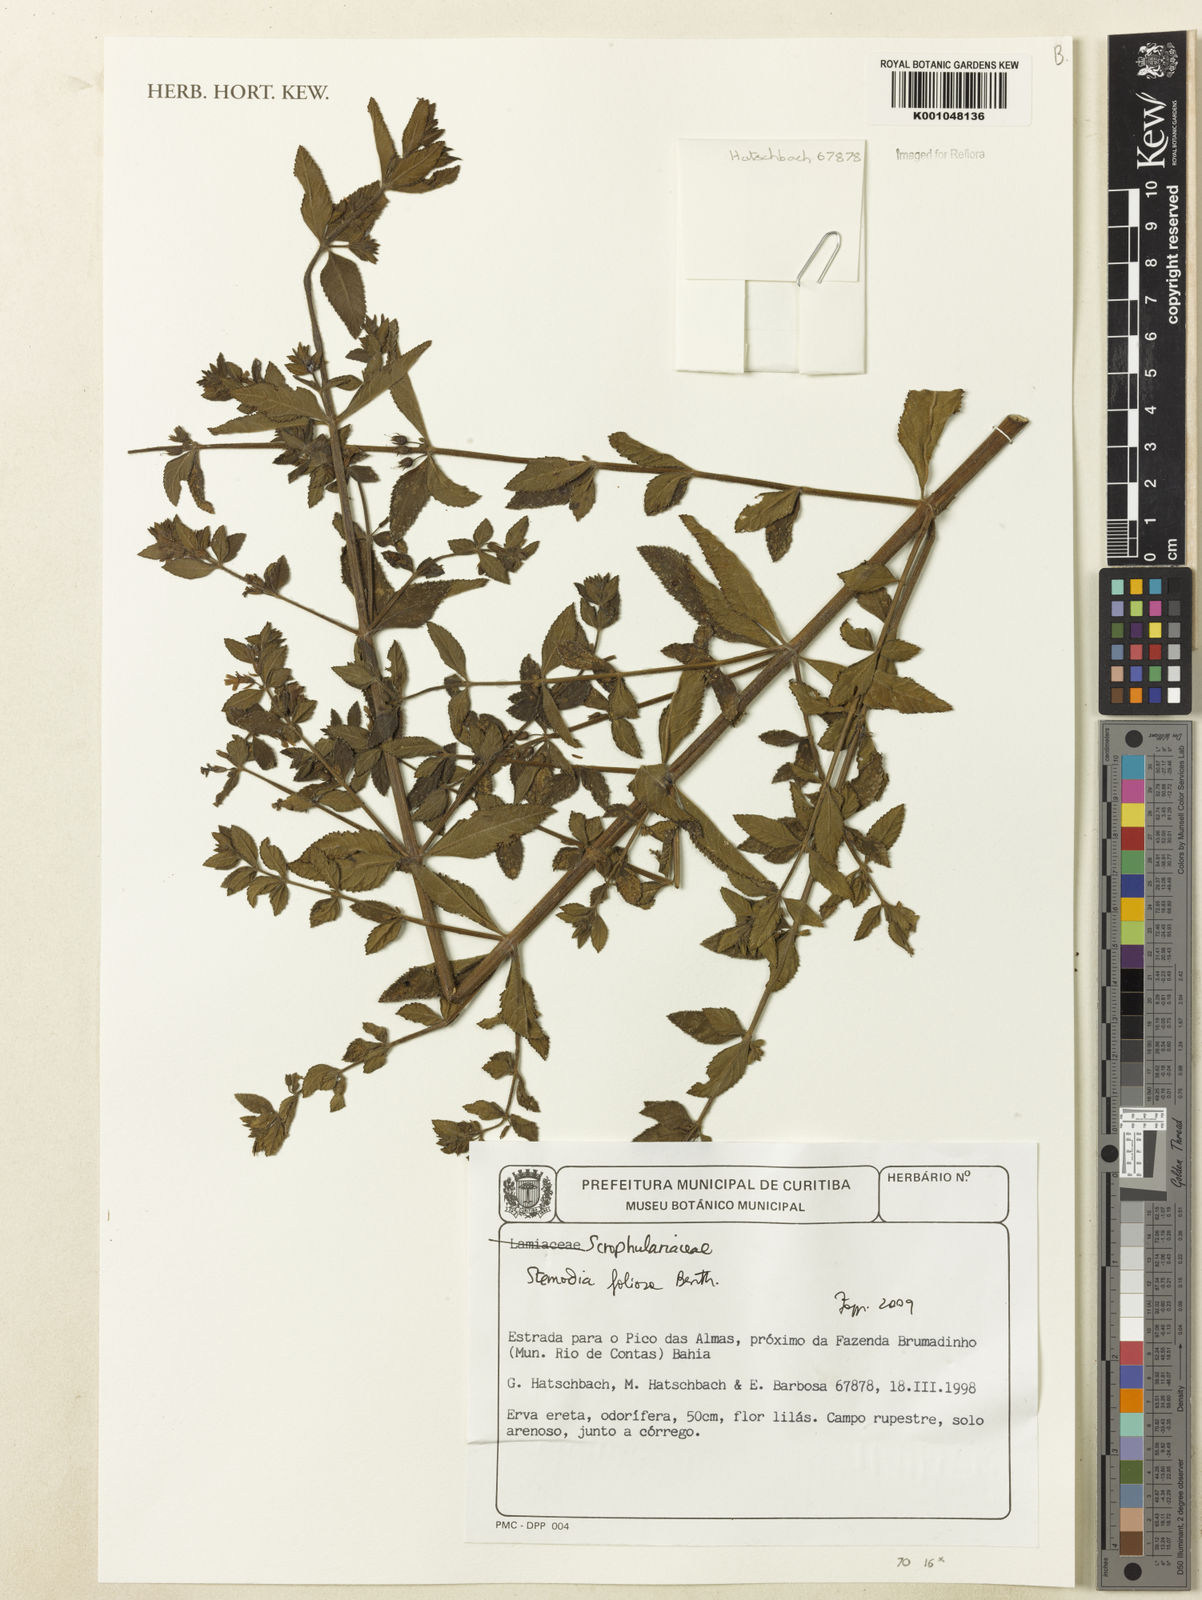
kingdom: Plantae
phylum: Tracheophyta
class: Magnoliopsida
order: Lamiales
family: Plantaginaceae
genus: Stemodia
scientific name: Stemodia foliosa
